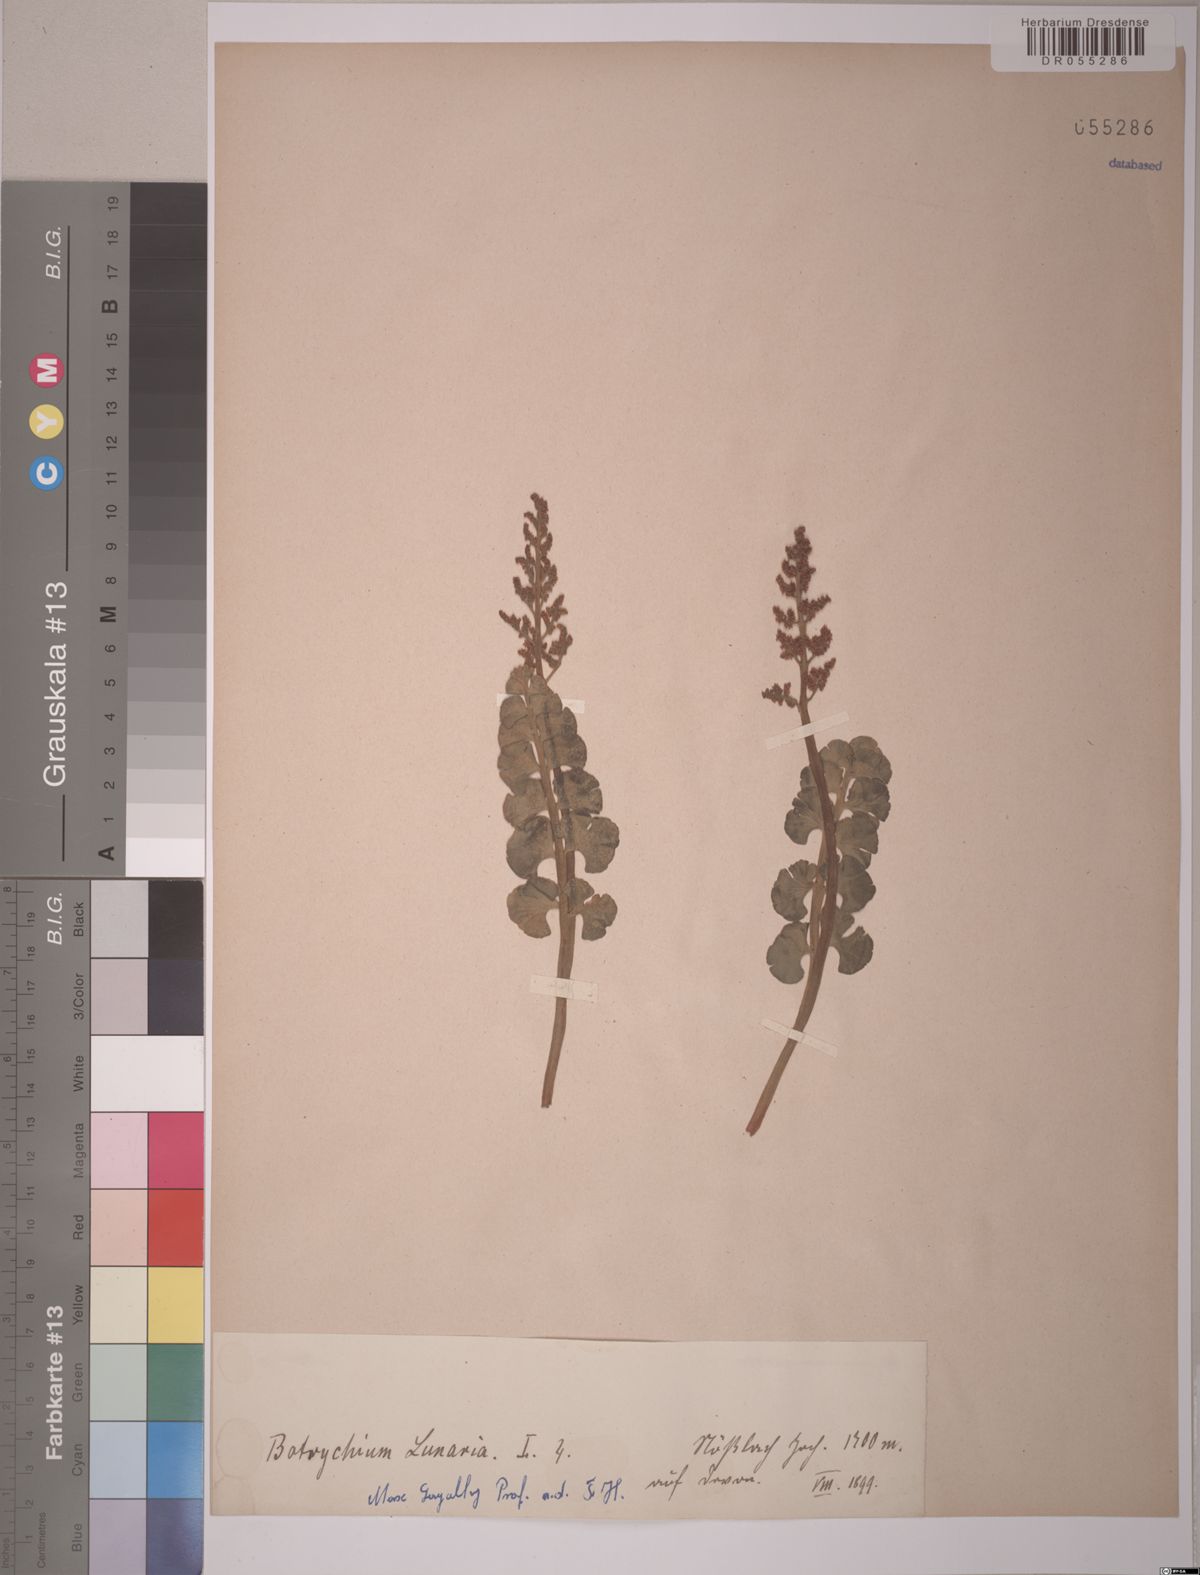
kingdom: Plantae
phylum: Tracheophyta
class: Polypodiopsida
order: Ophioglossales
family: Ophioglossaceae
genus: Botrychium
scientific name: Botrychium lunaria
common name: Moonwort
